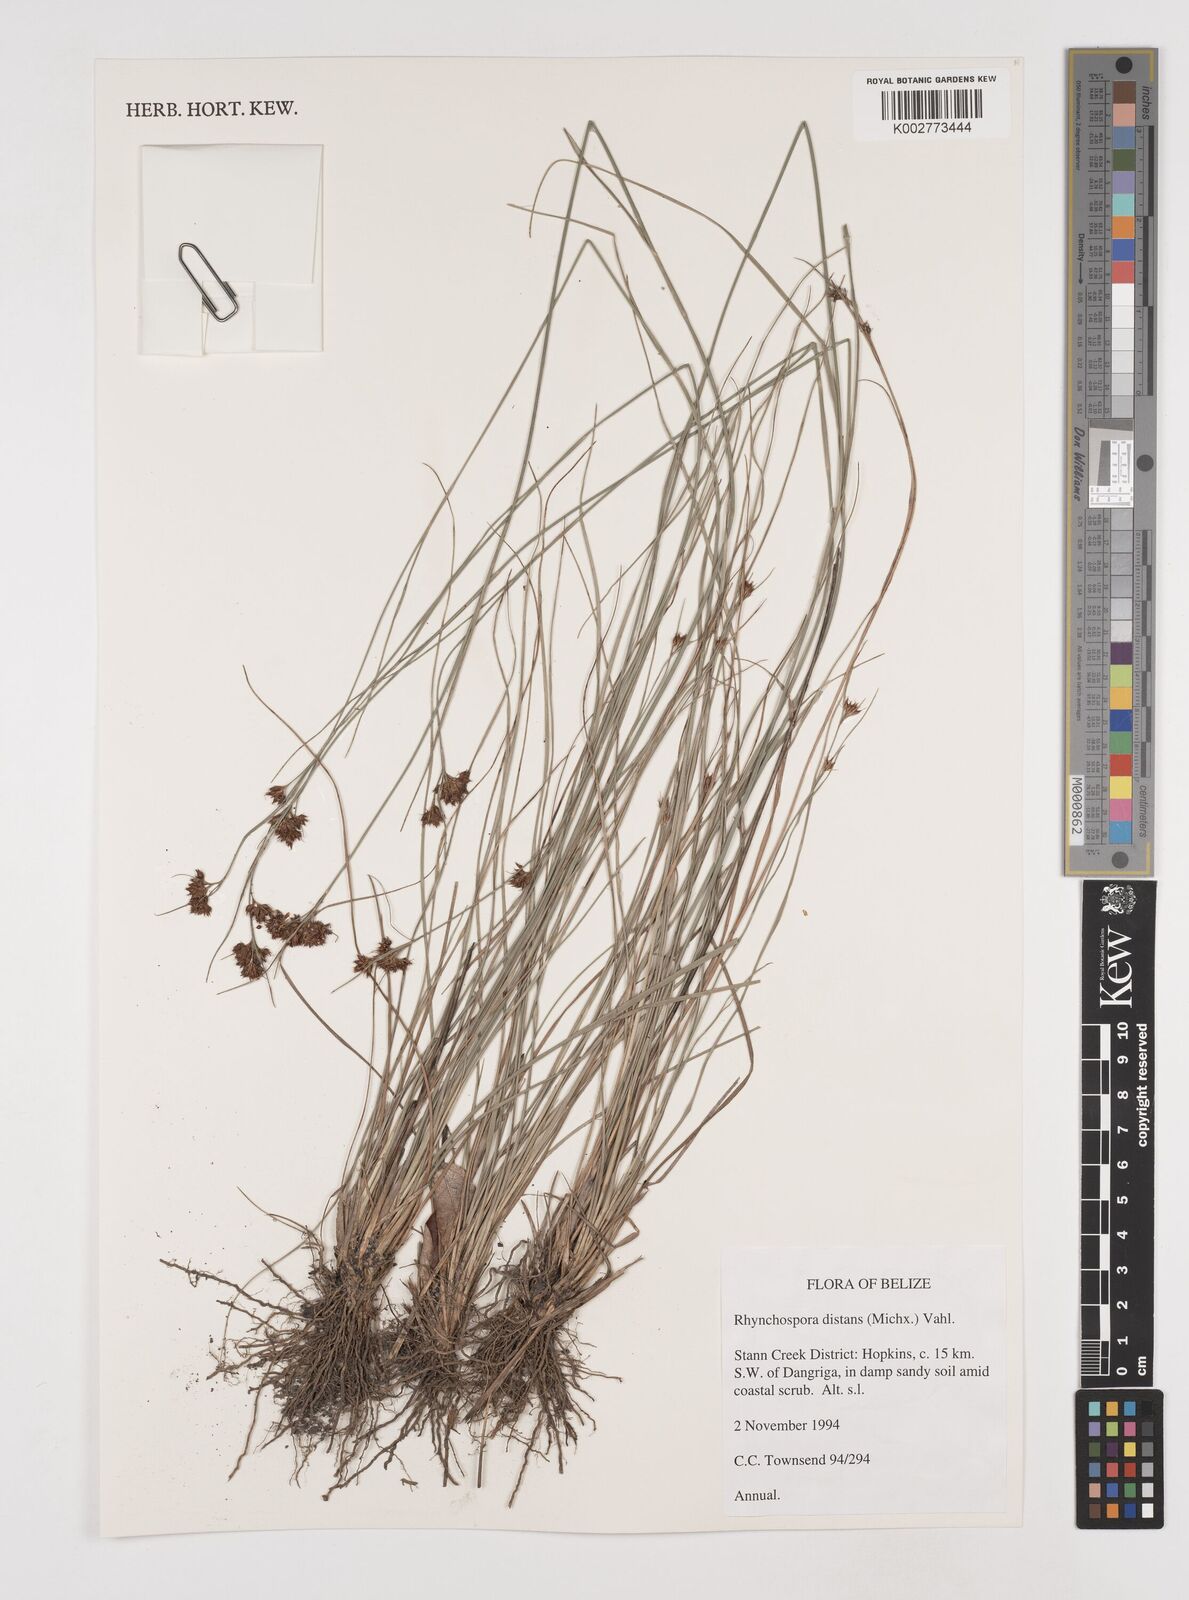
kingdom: Plantae
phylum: Tracheophyta
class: Liliopsida
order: Poales
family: Cyperaceae
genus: Rhynchospora
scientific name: Rhynchospora fascicularis
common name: Fascicled beak sedge
